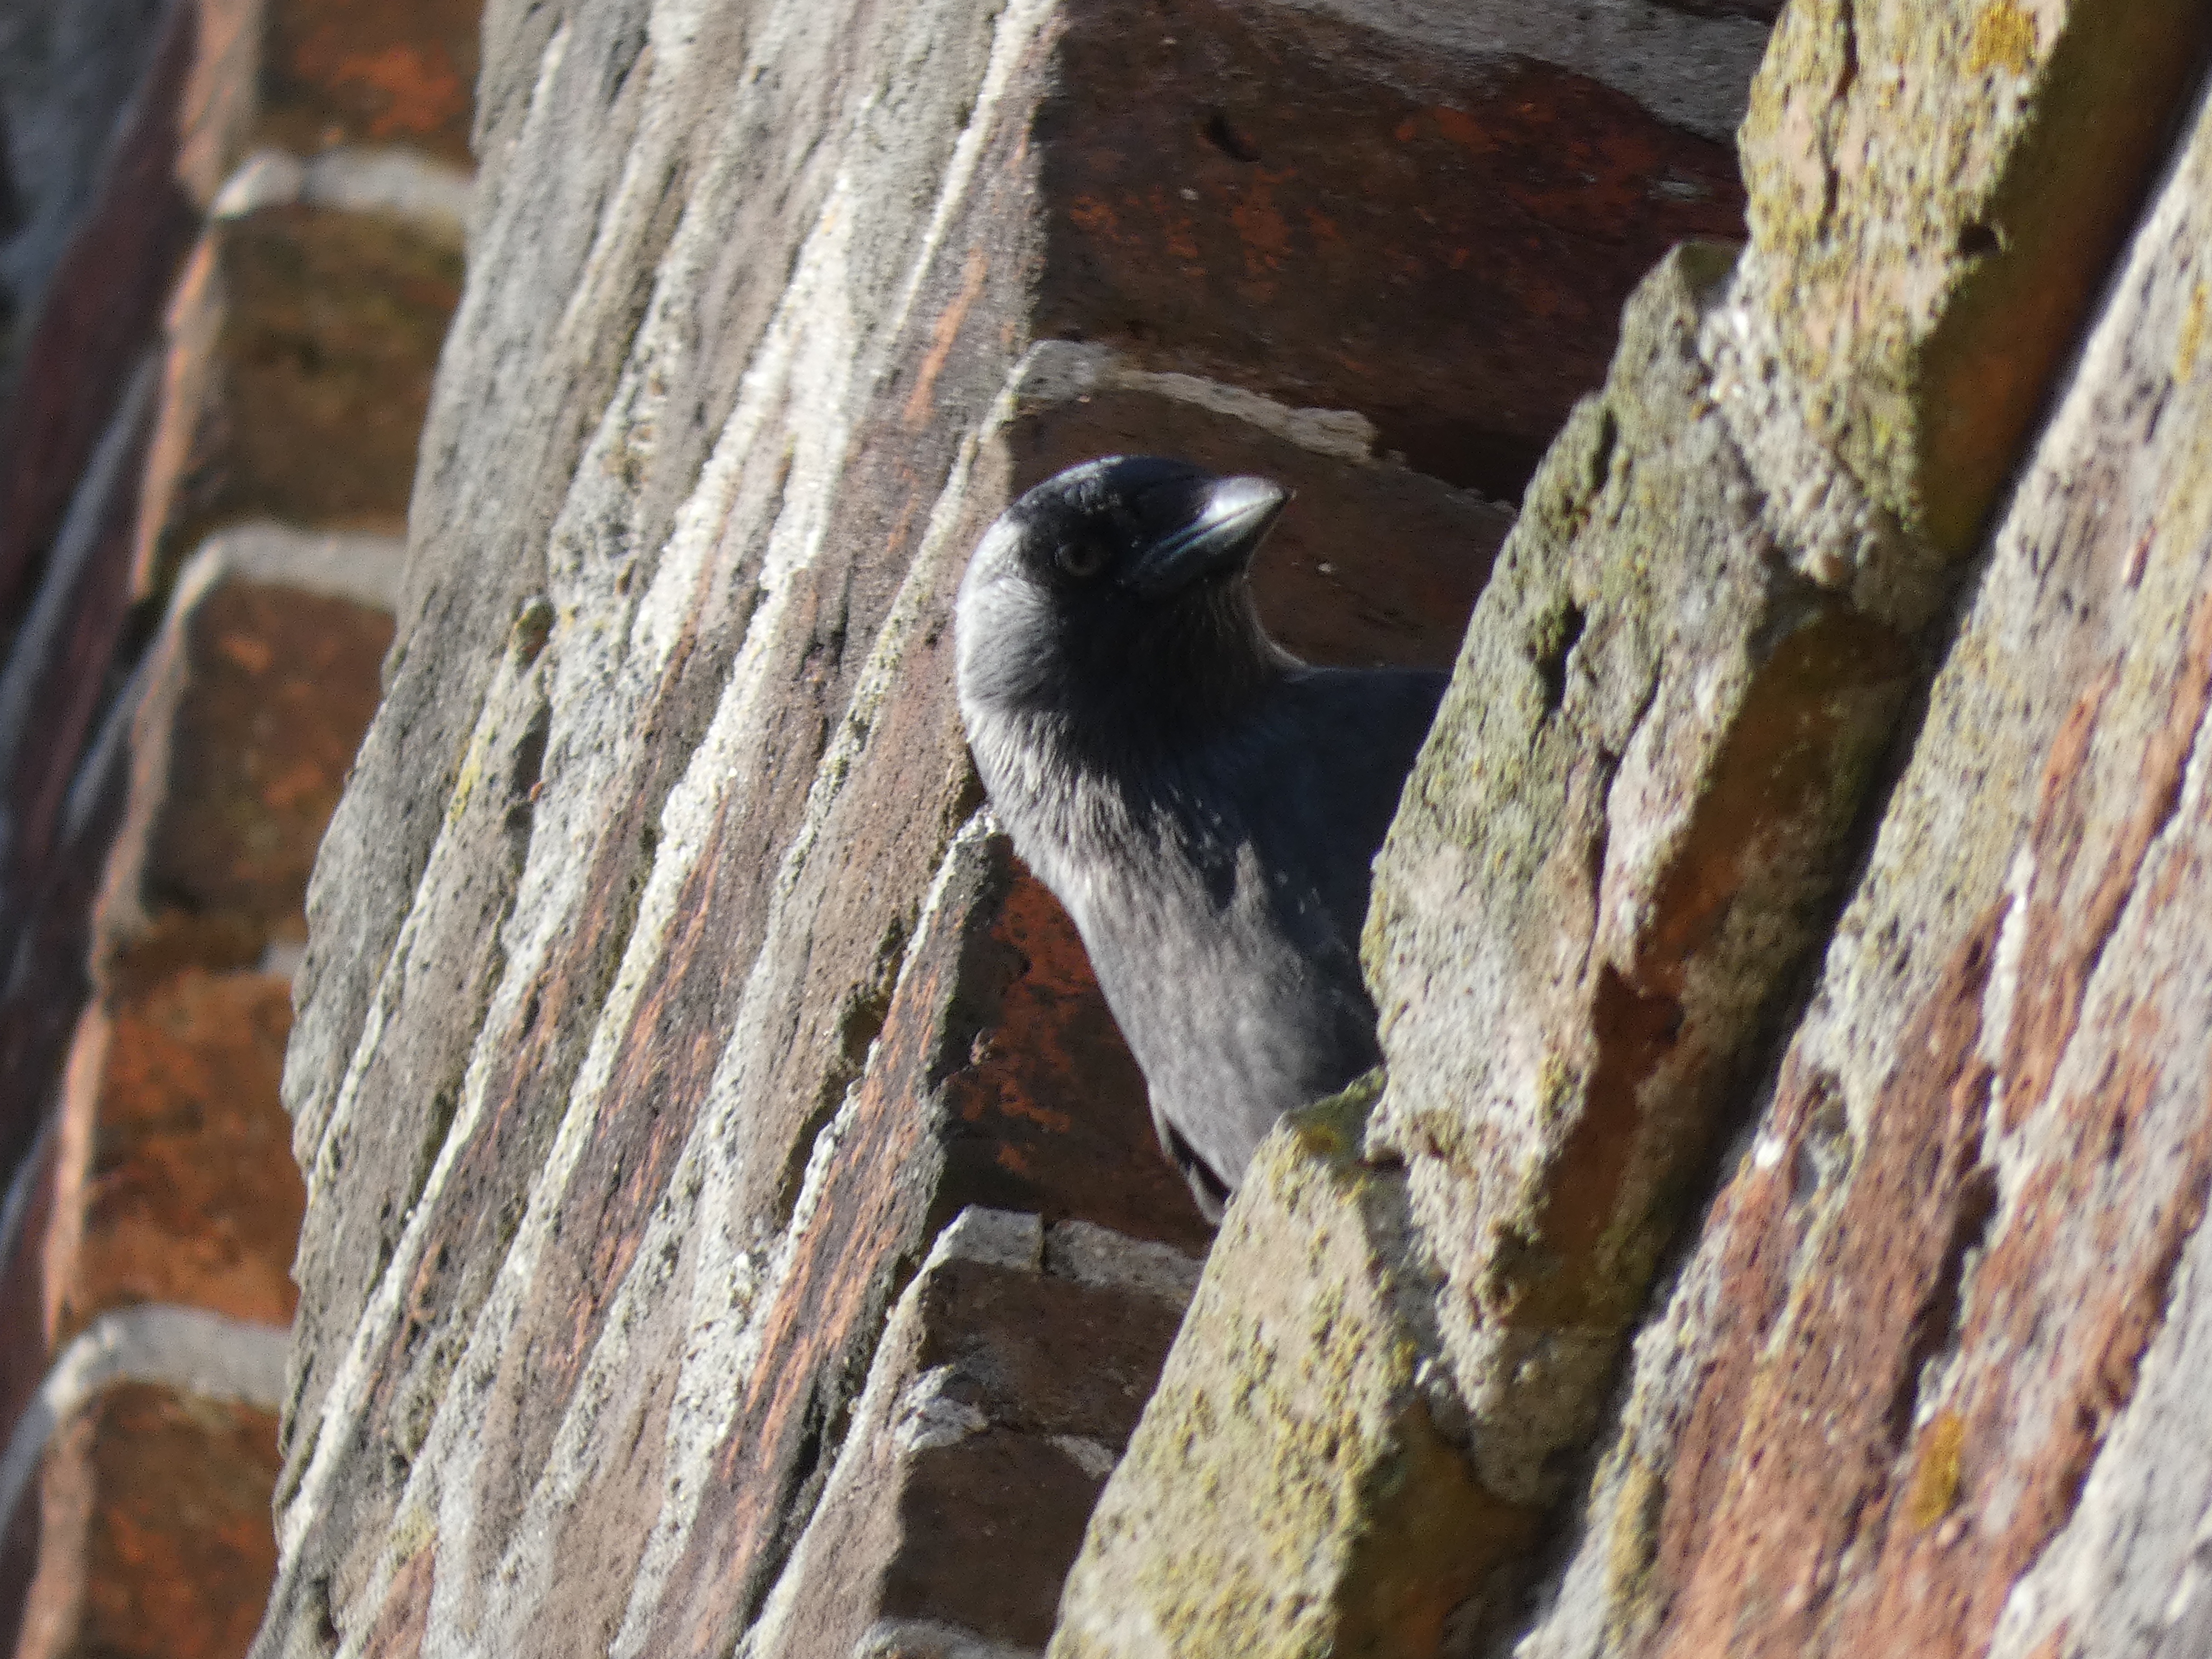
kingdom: Animalia
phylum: Chordata
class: Aves
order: Passeriformes
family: Corvidae
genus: Coloeus
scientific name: Coloeus monedula
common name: Allike
